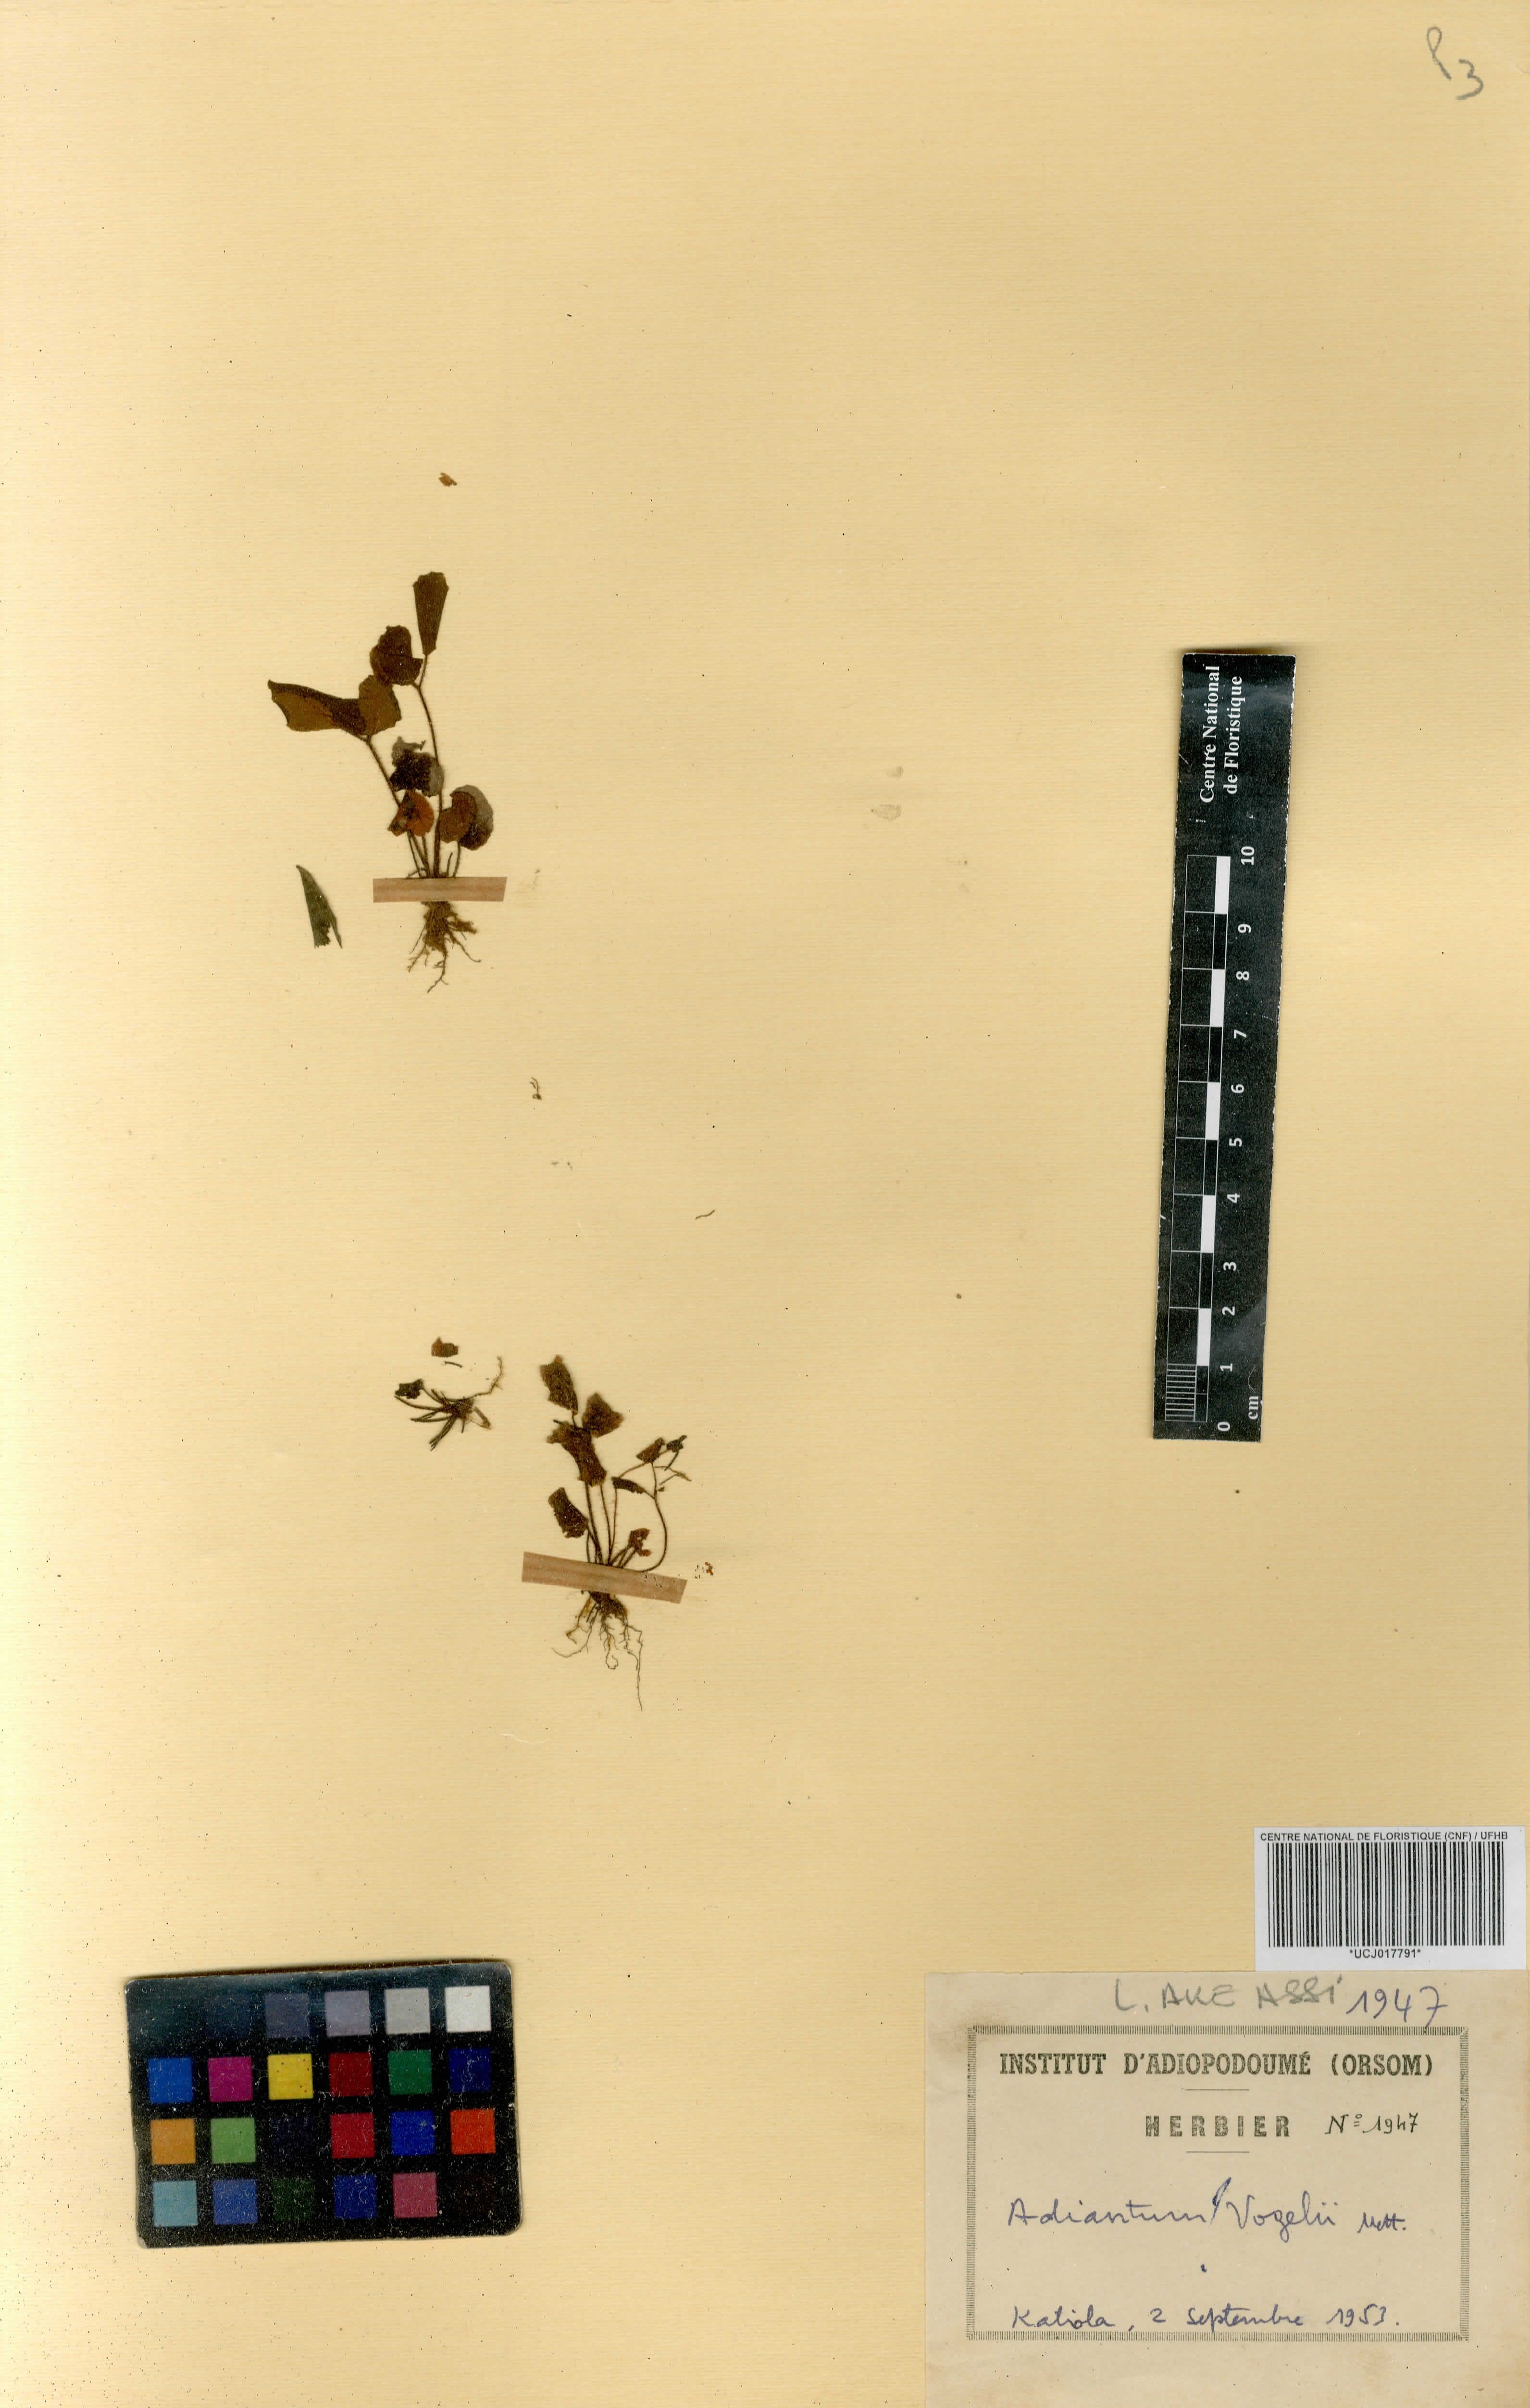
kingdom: Plantae
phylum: Tracheophyta
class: Polypodiopsida
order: Polypodiales
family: Pteridaceae
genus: Adiantum
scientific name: Adiantum vogelii
